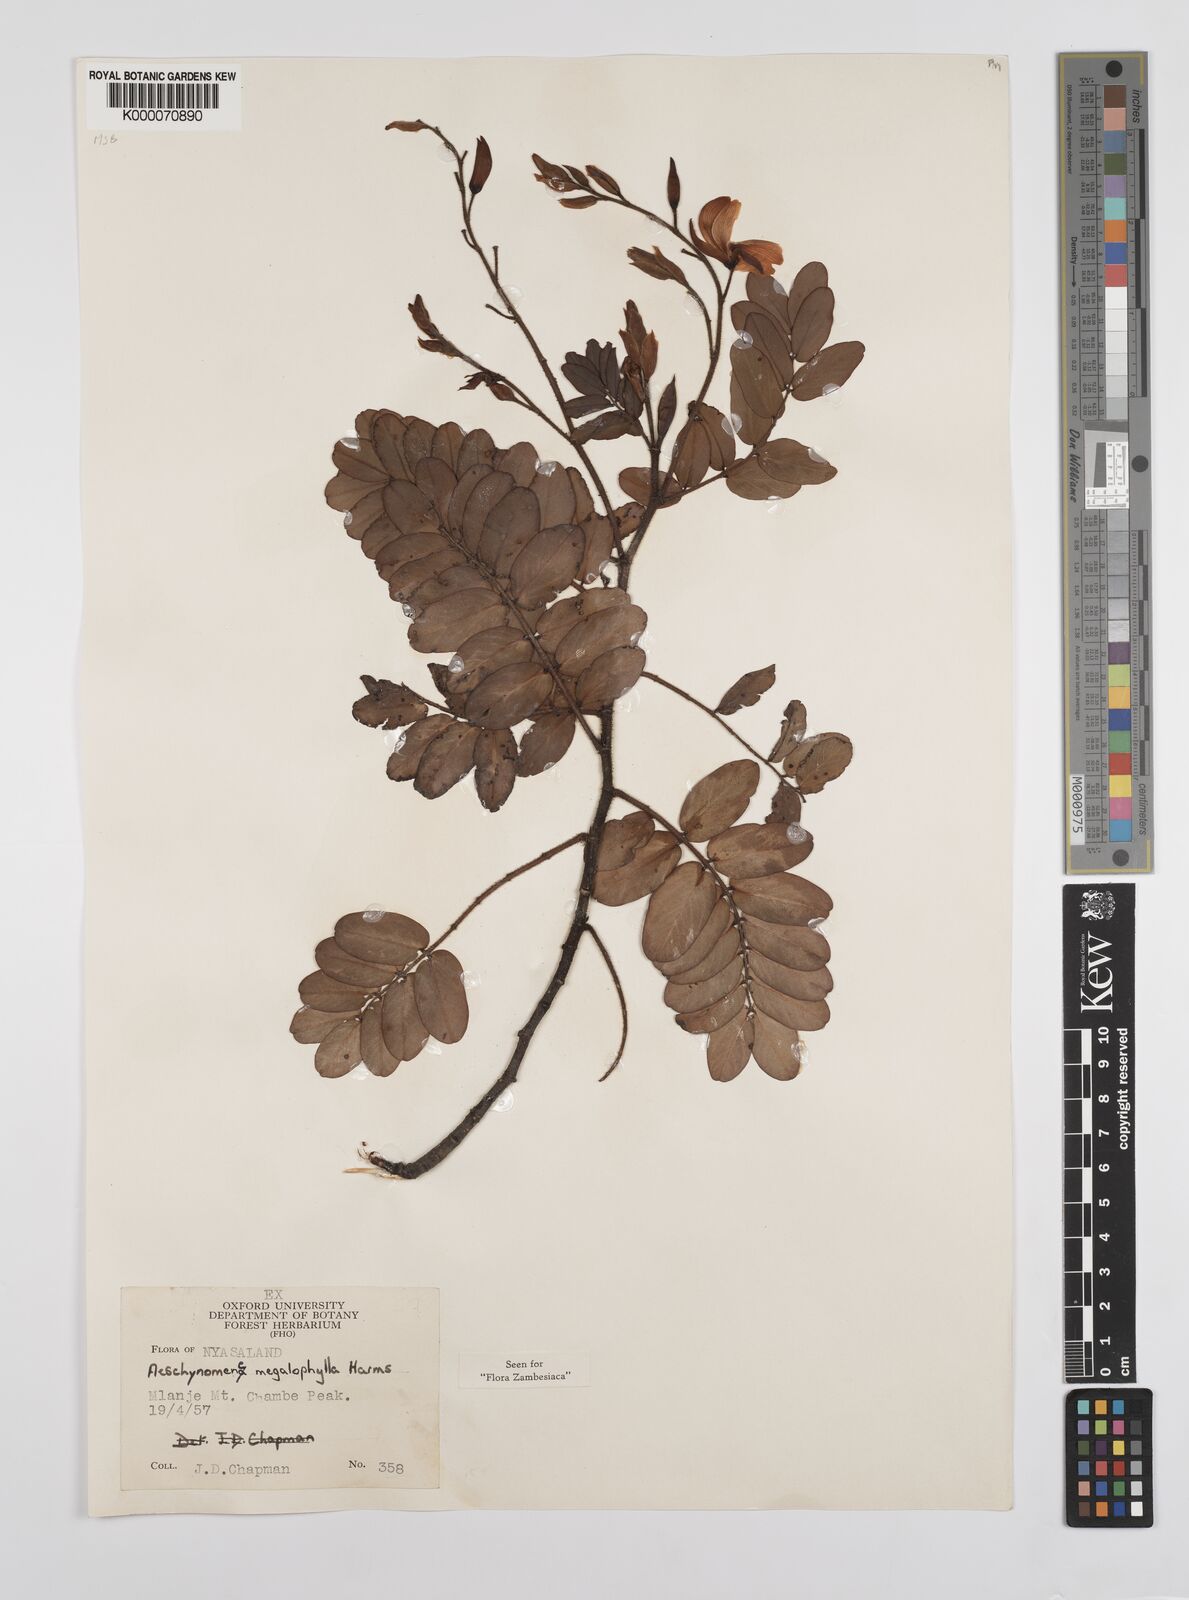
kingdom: Plantae
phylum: Tracheophyta
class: Magnoliopsida
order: Fabales
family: Fabaceae
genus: Aeschynomene
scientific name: Aeschynomene megalophylla
